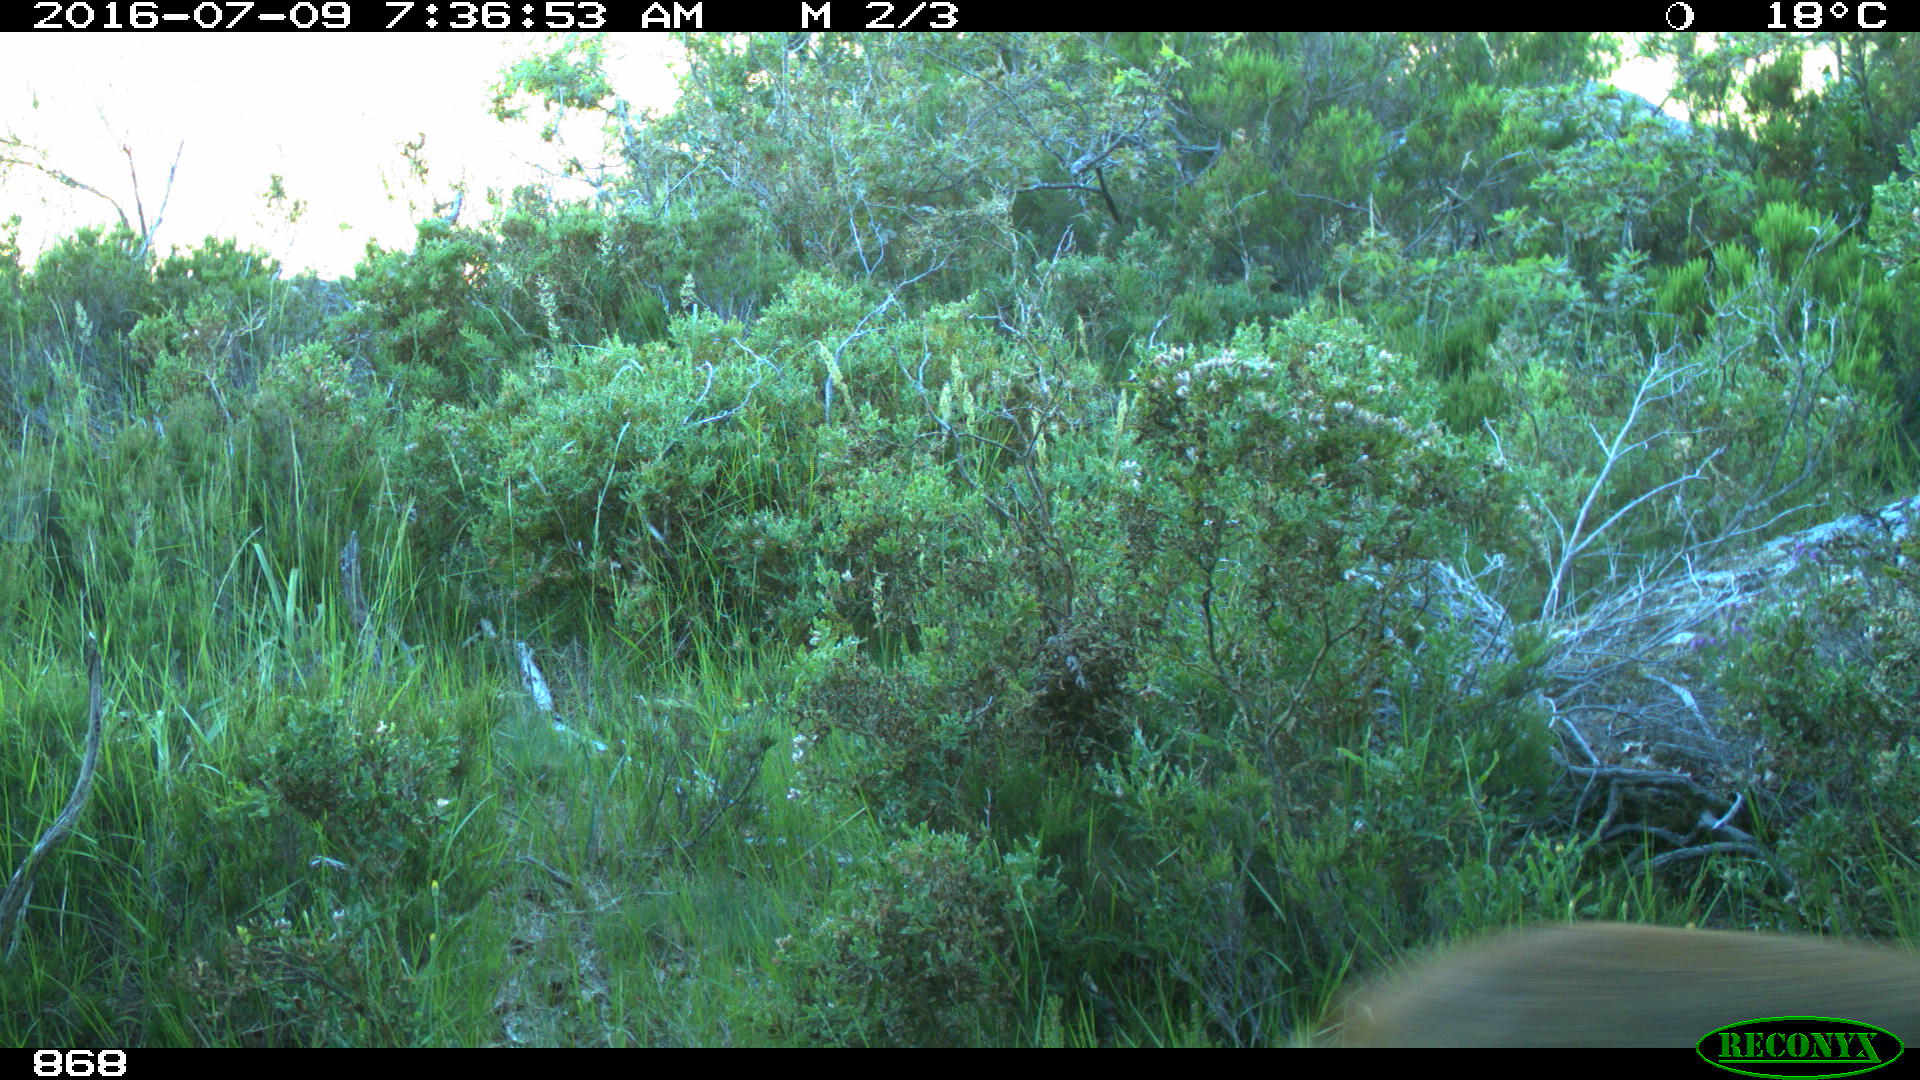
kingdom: Animalia
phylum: Chordata
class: Mammalia
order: Artiodactyla
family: Cervidae
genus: Capreolus
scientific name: Capreolus capreolus
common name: Western roe deer
